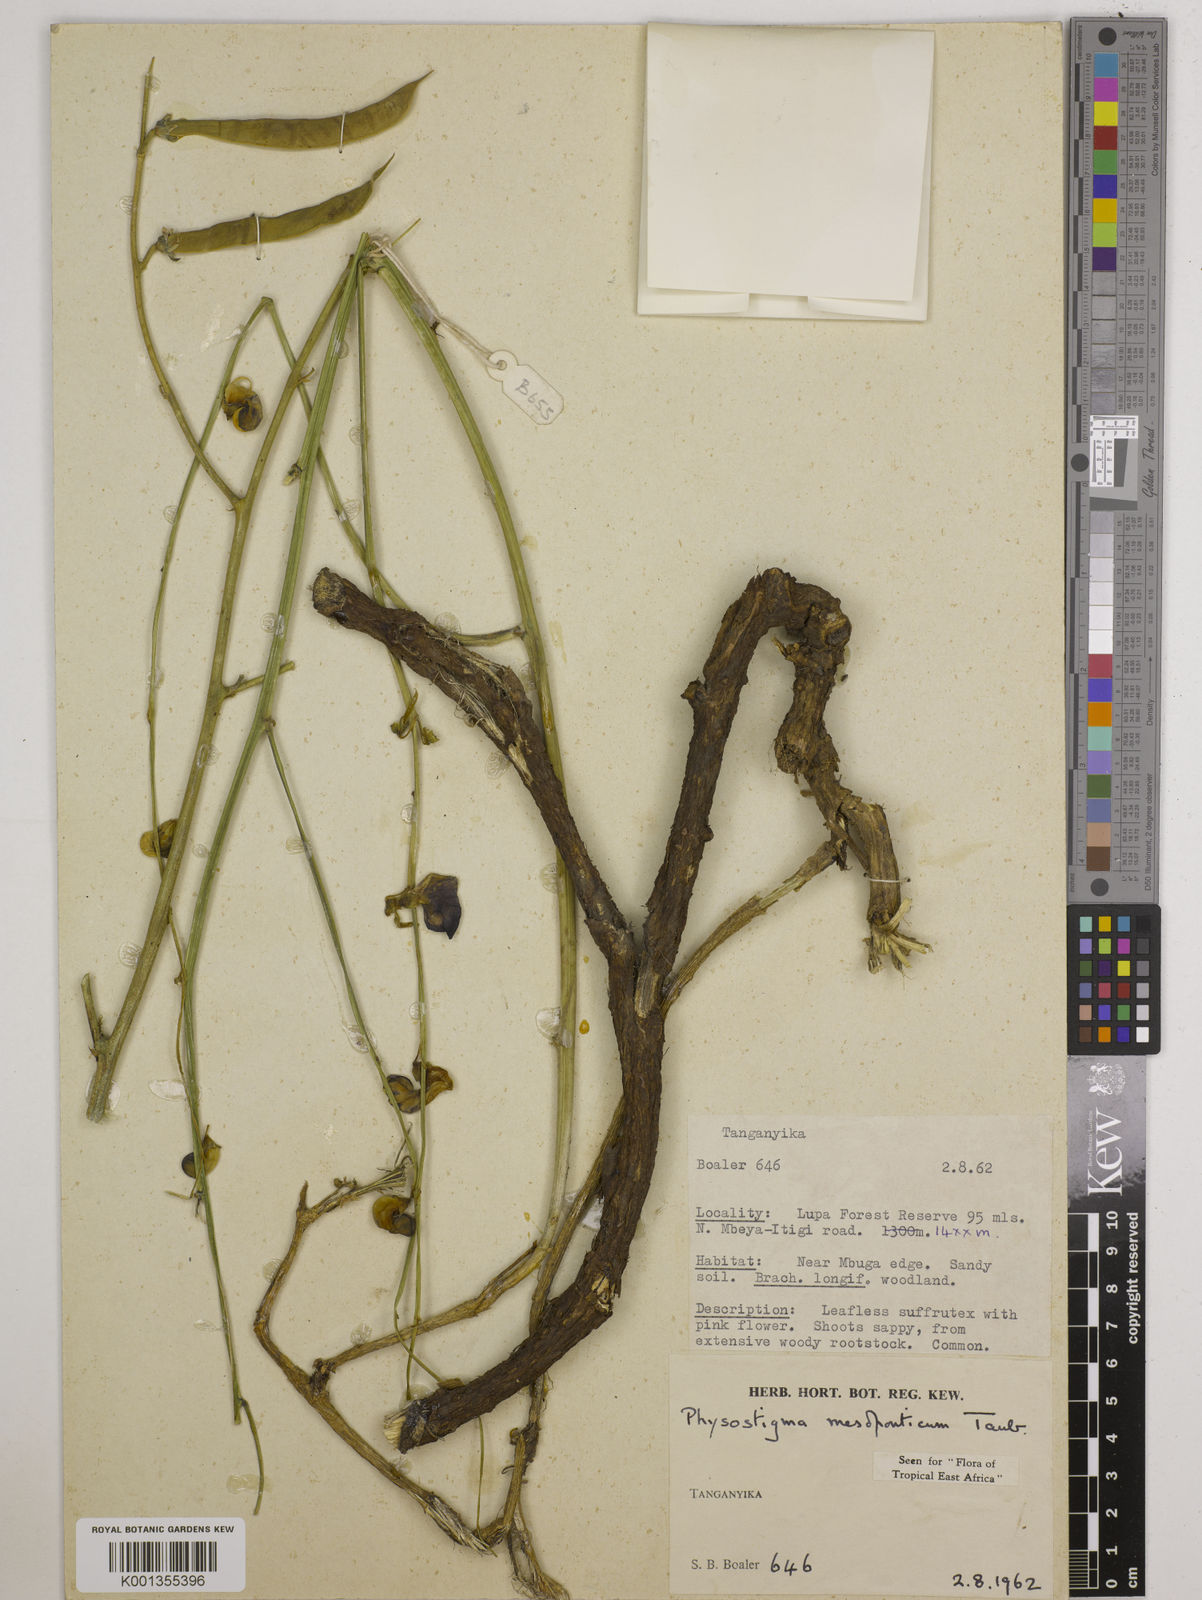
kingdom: Plantae
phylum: Tracheophyta
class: Magnoliopsida
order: Fabales
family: Fabaceae
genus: Physostigma
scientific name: Physostigma mesoponticum
